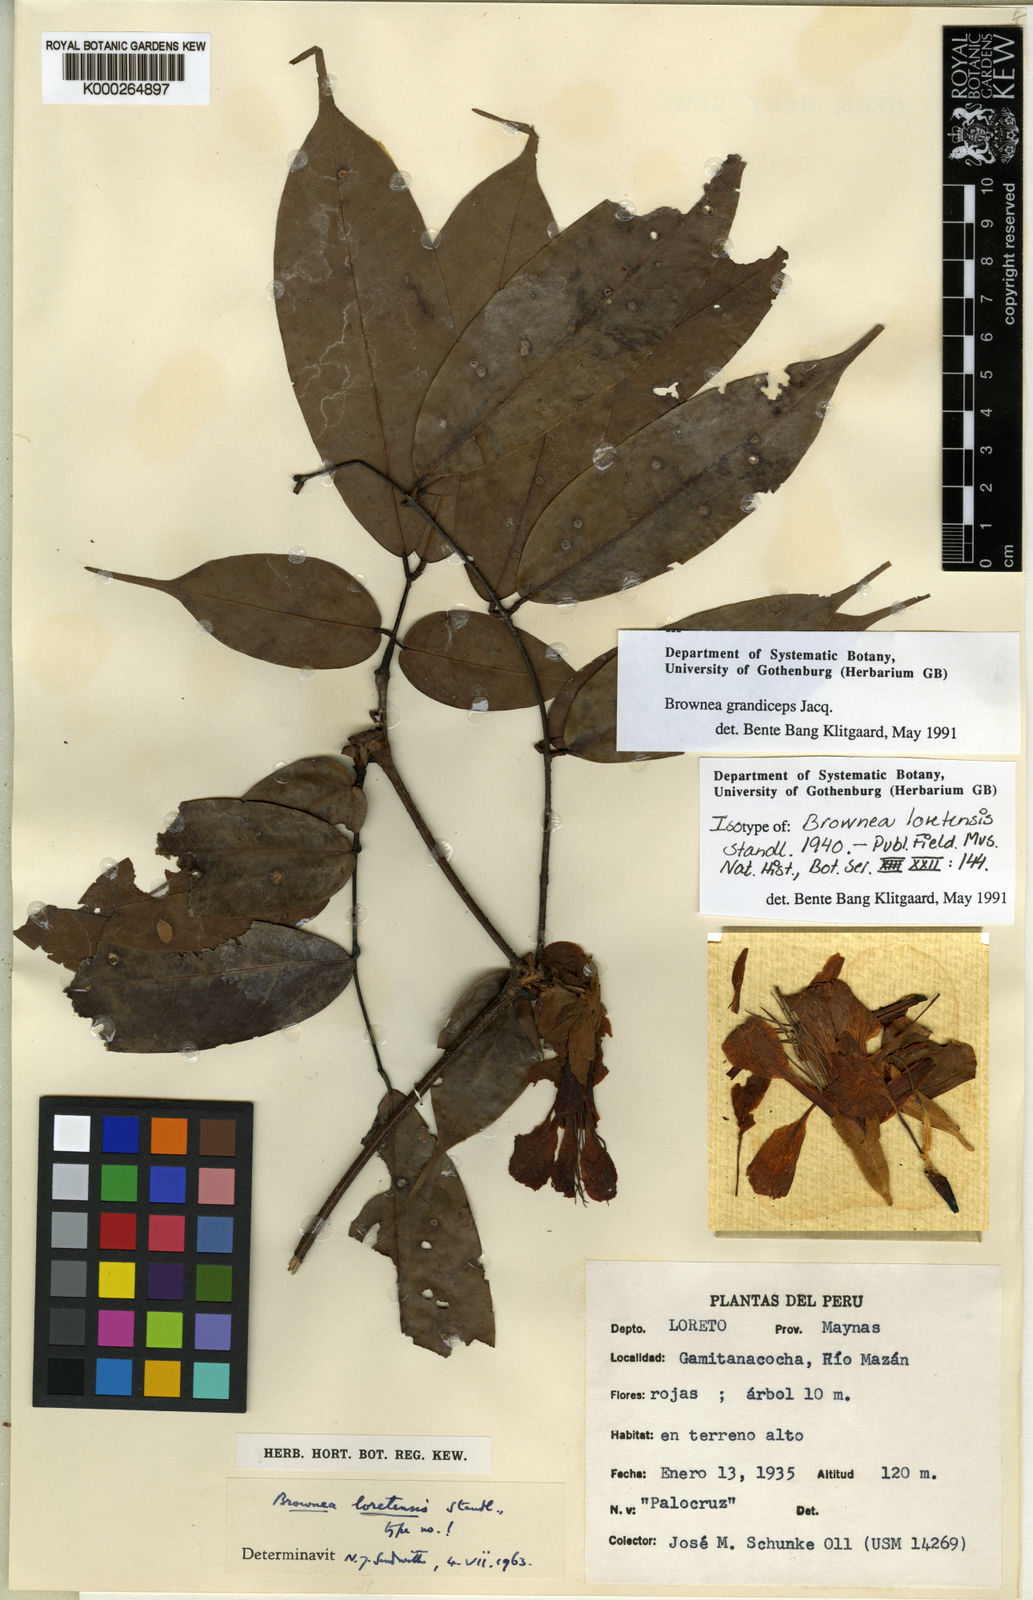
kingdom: Plantae
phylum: Tracheophyta
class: Magnoliopsida
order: Fabales
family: Fabaceae
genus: Brownea
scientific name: Brownea grandiceps
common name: Rose-of-venezuela
